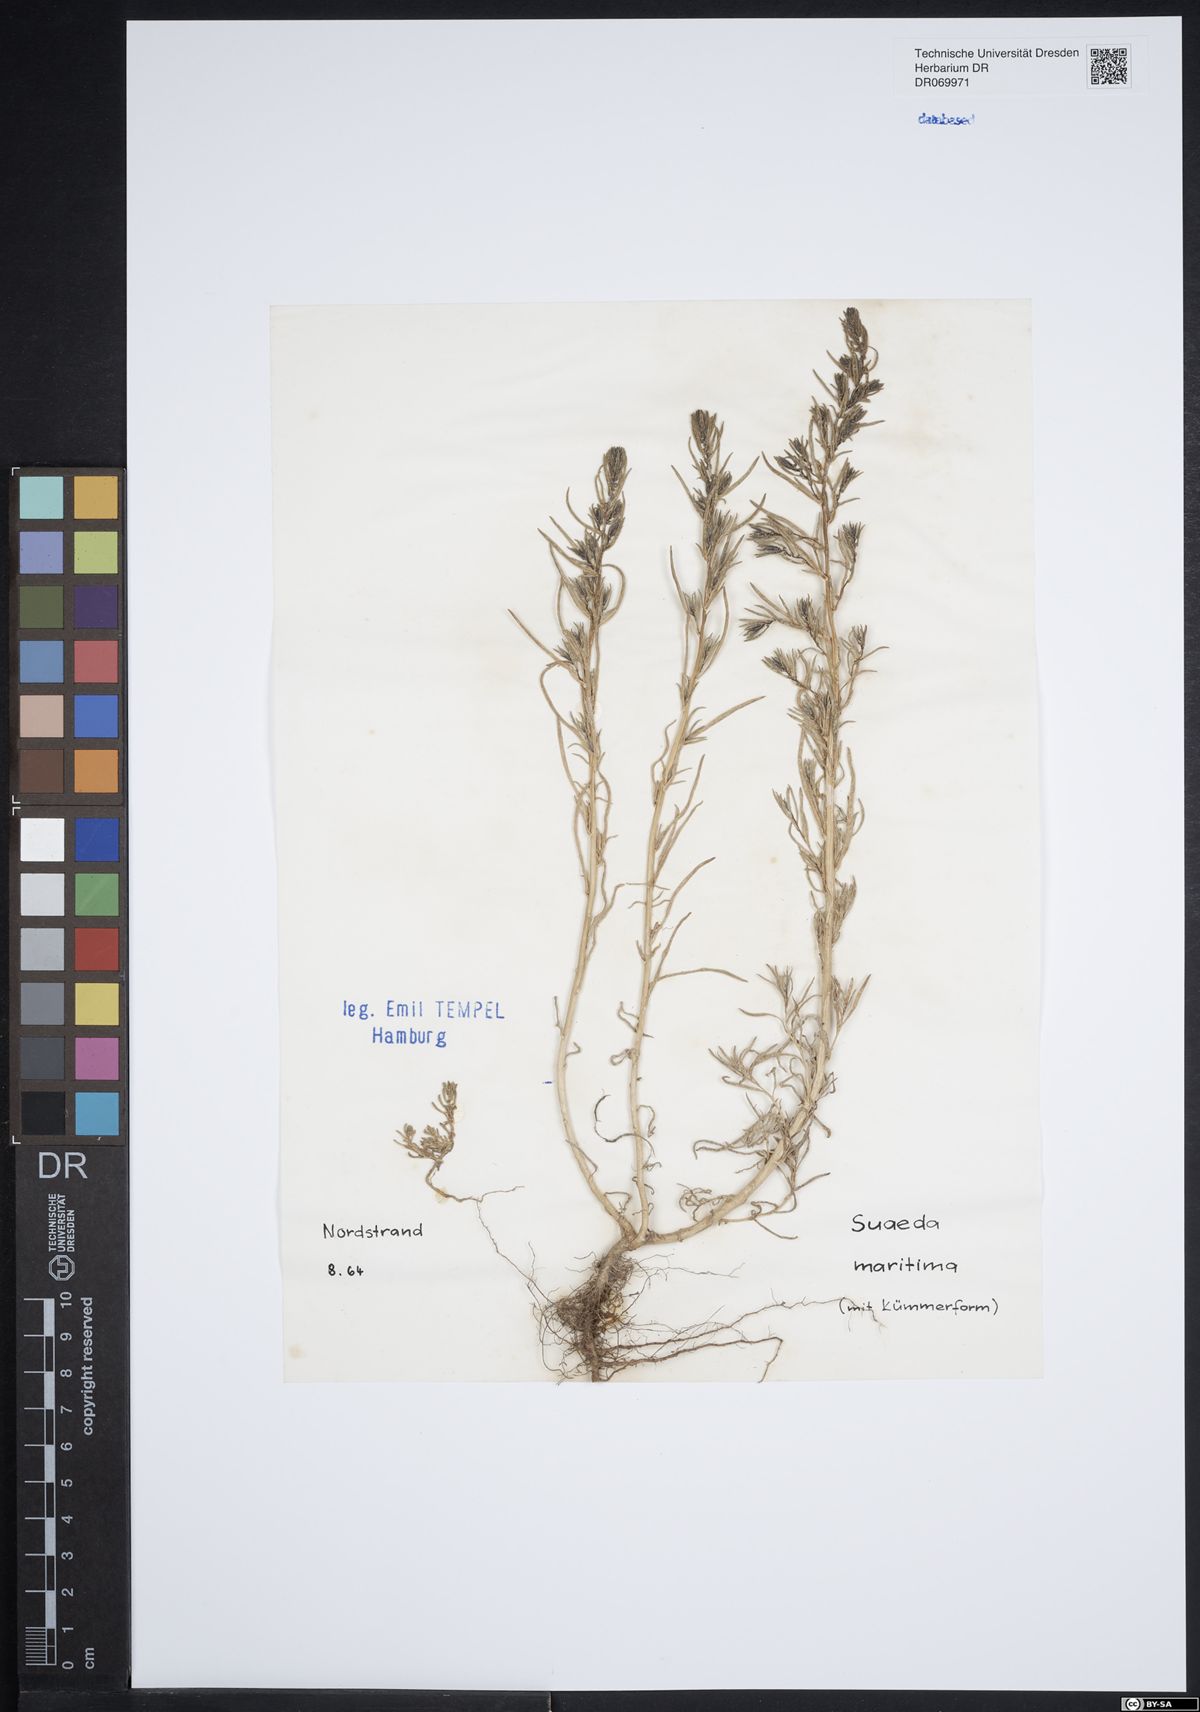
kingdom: Plantae
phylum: Tracheophyta
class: Magnoliopsida
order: Caryophyllales
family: Amaranthaceae
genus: Suaeda
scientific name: Suaeda maritima
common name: Annual sea-blite
